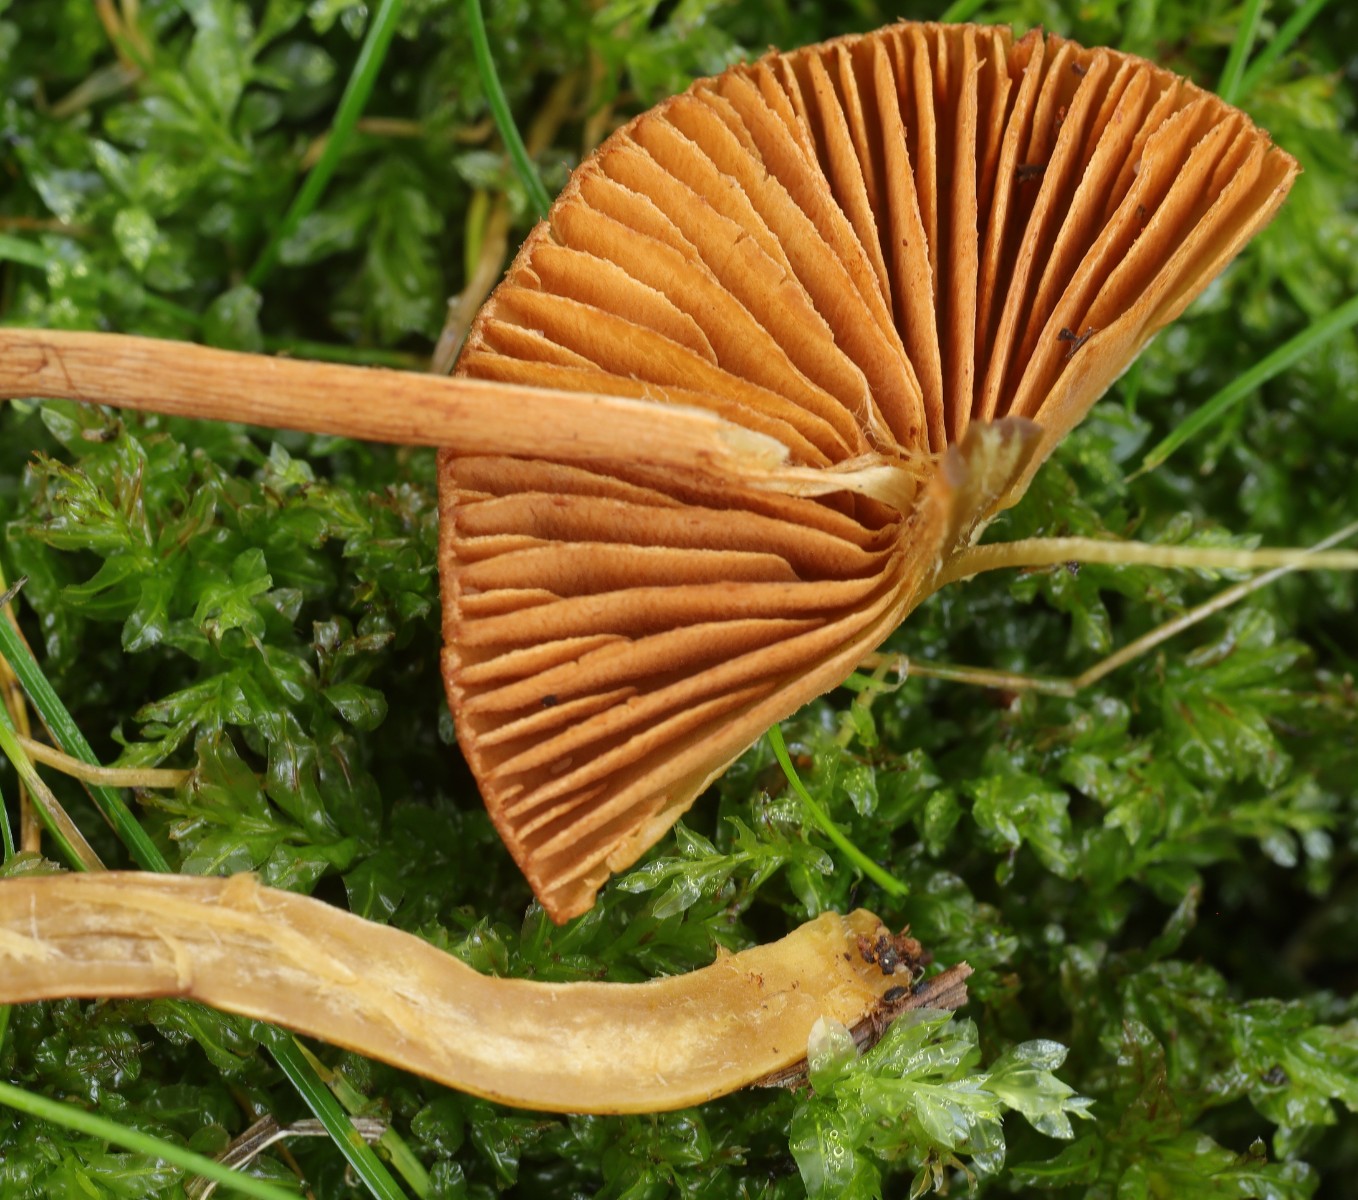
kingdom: Fungi
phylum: Basidiomycota
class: Agaricomycetes
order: Agaricales
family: Cortinariaceae
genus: Cortinarius
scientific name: Cortinarius
